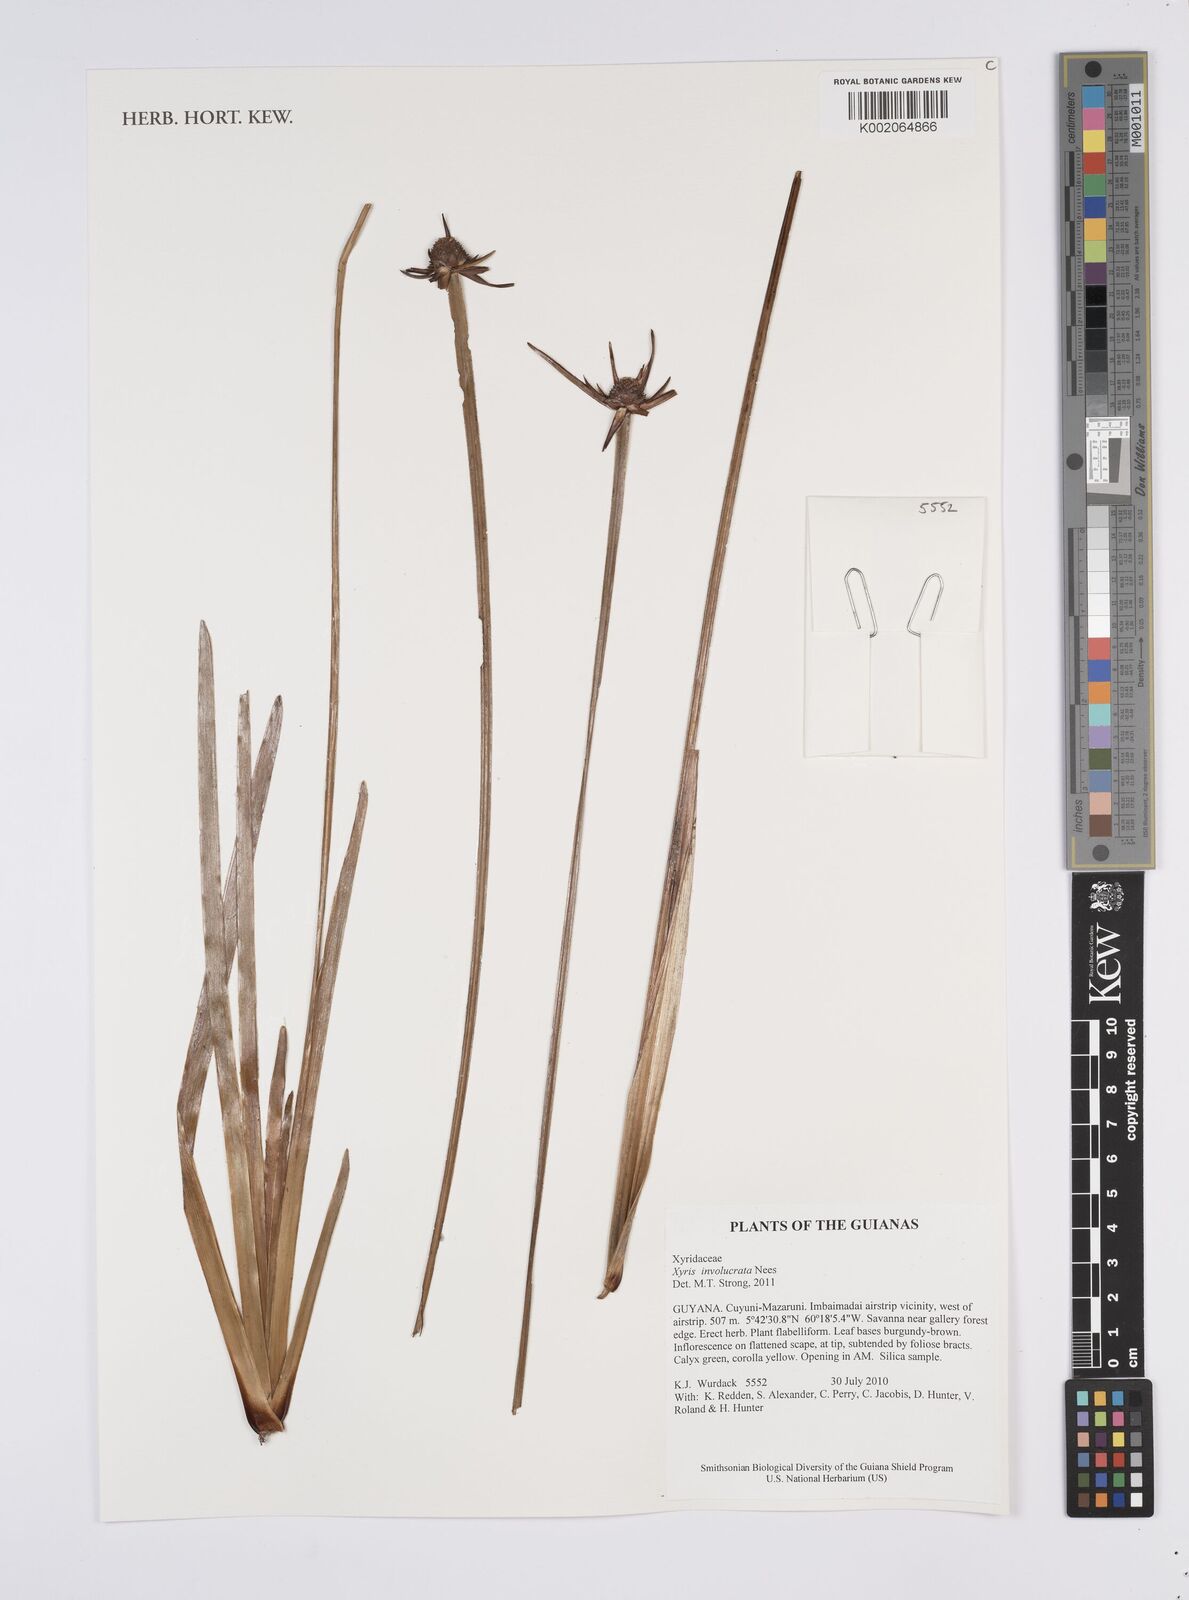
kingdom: Plantae
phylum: Tracheophyta
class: Liliopsida
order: Poales
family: Xyridaceae
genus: Xyris
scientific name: Xyris involucrata
